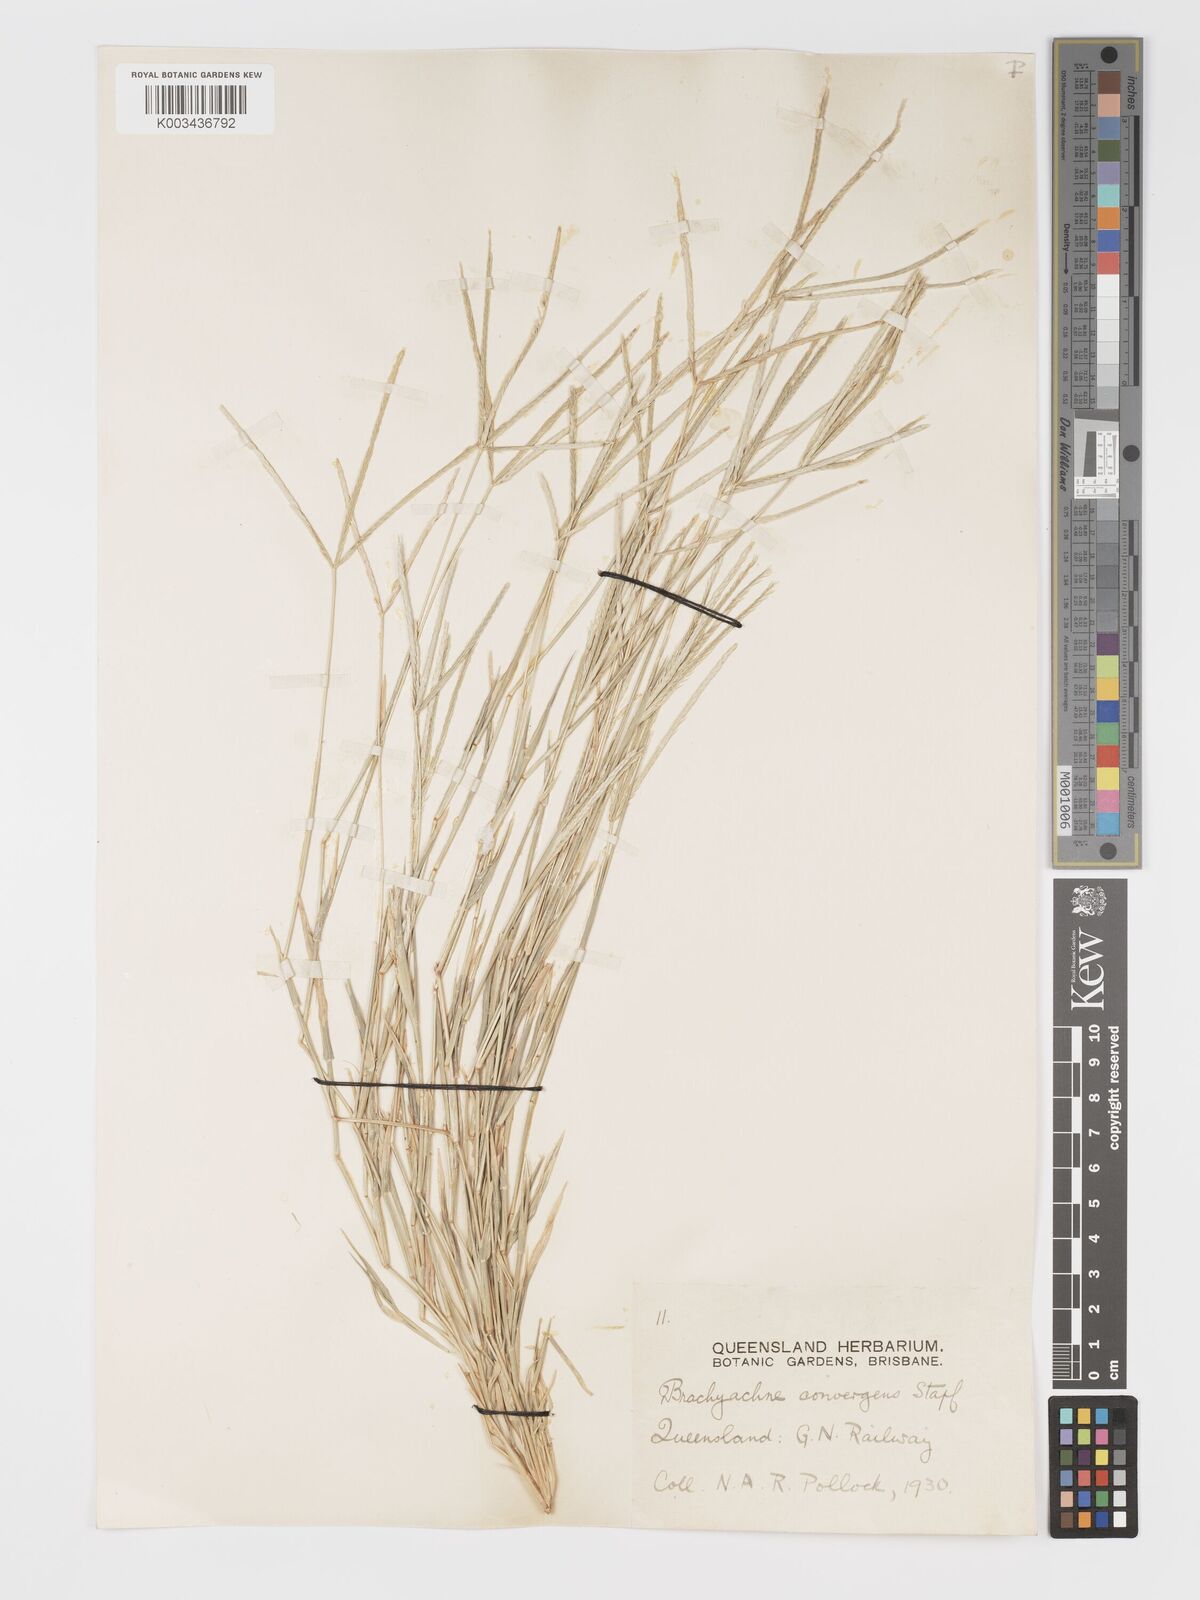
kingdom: Plantae
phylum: Tracheophyta
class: Liliopsida
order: Poales
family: Poaceae
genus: Cynodon
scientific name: Cynodon convergens
